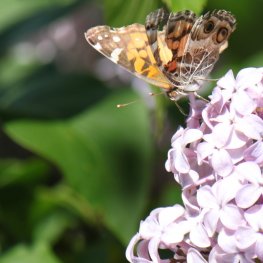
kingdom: Animalia
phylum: Arthropoda
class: Insecta
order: Lepidoptera
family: Nymphalidae
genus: Vanessa
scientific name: Vanessa virginiensis
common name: American Lady
